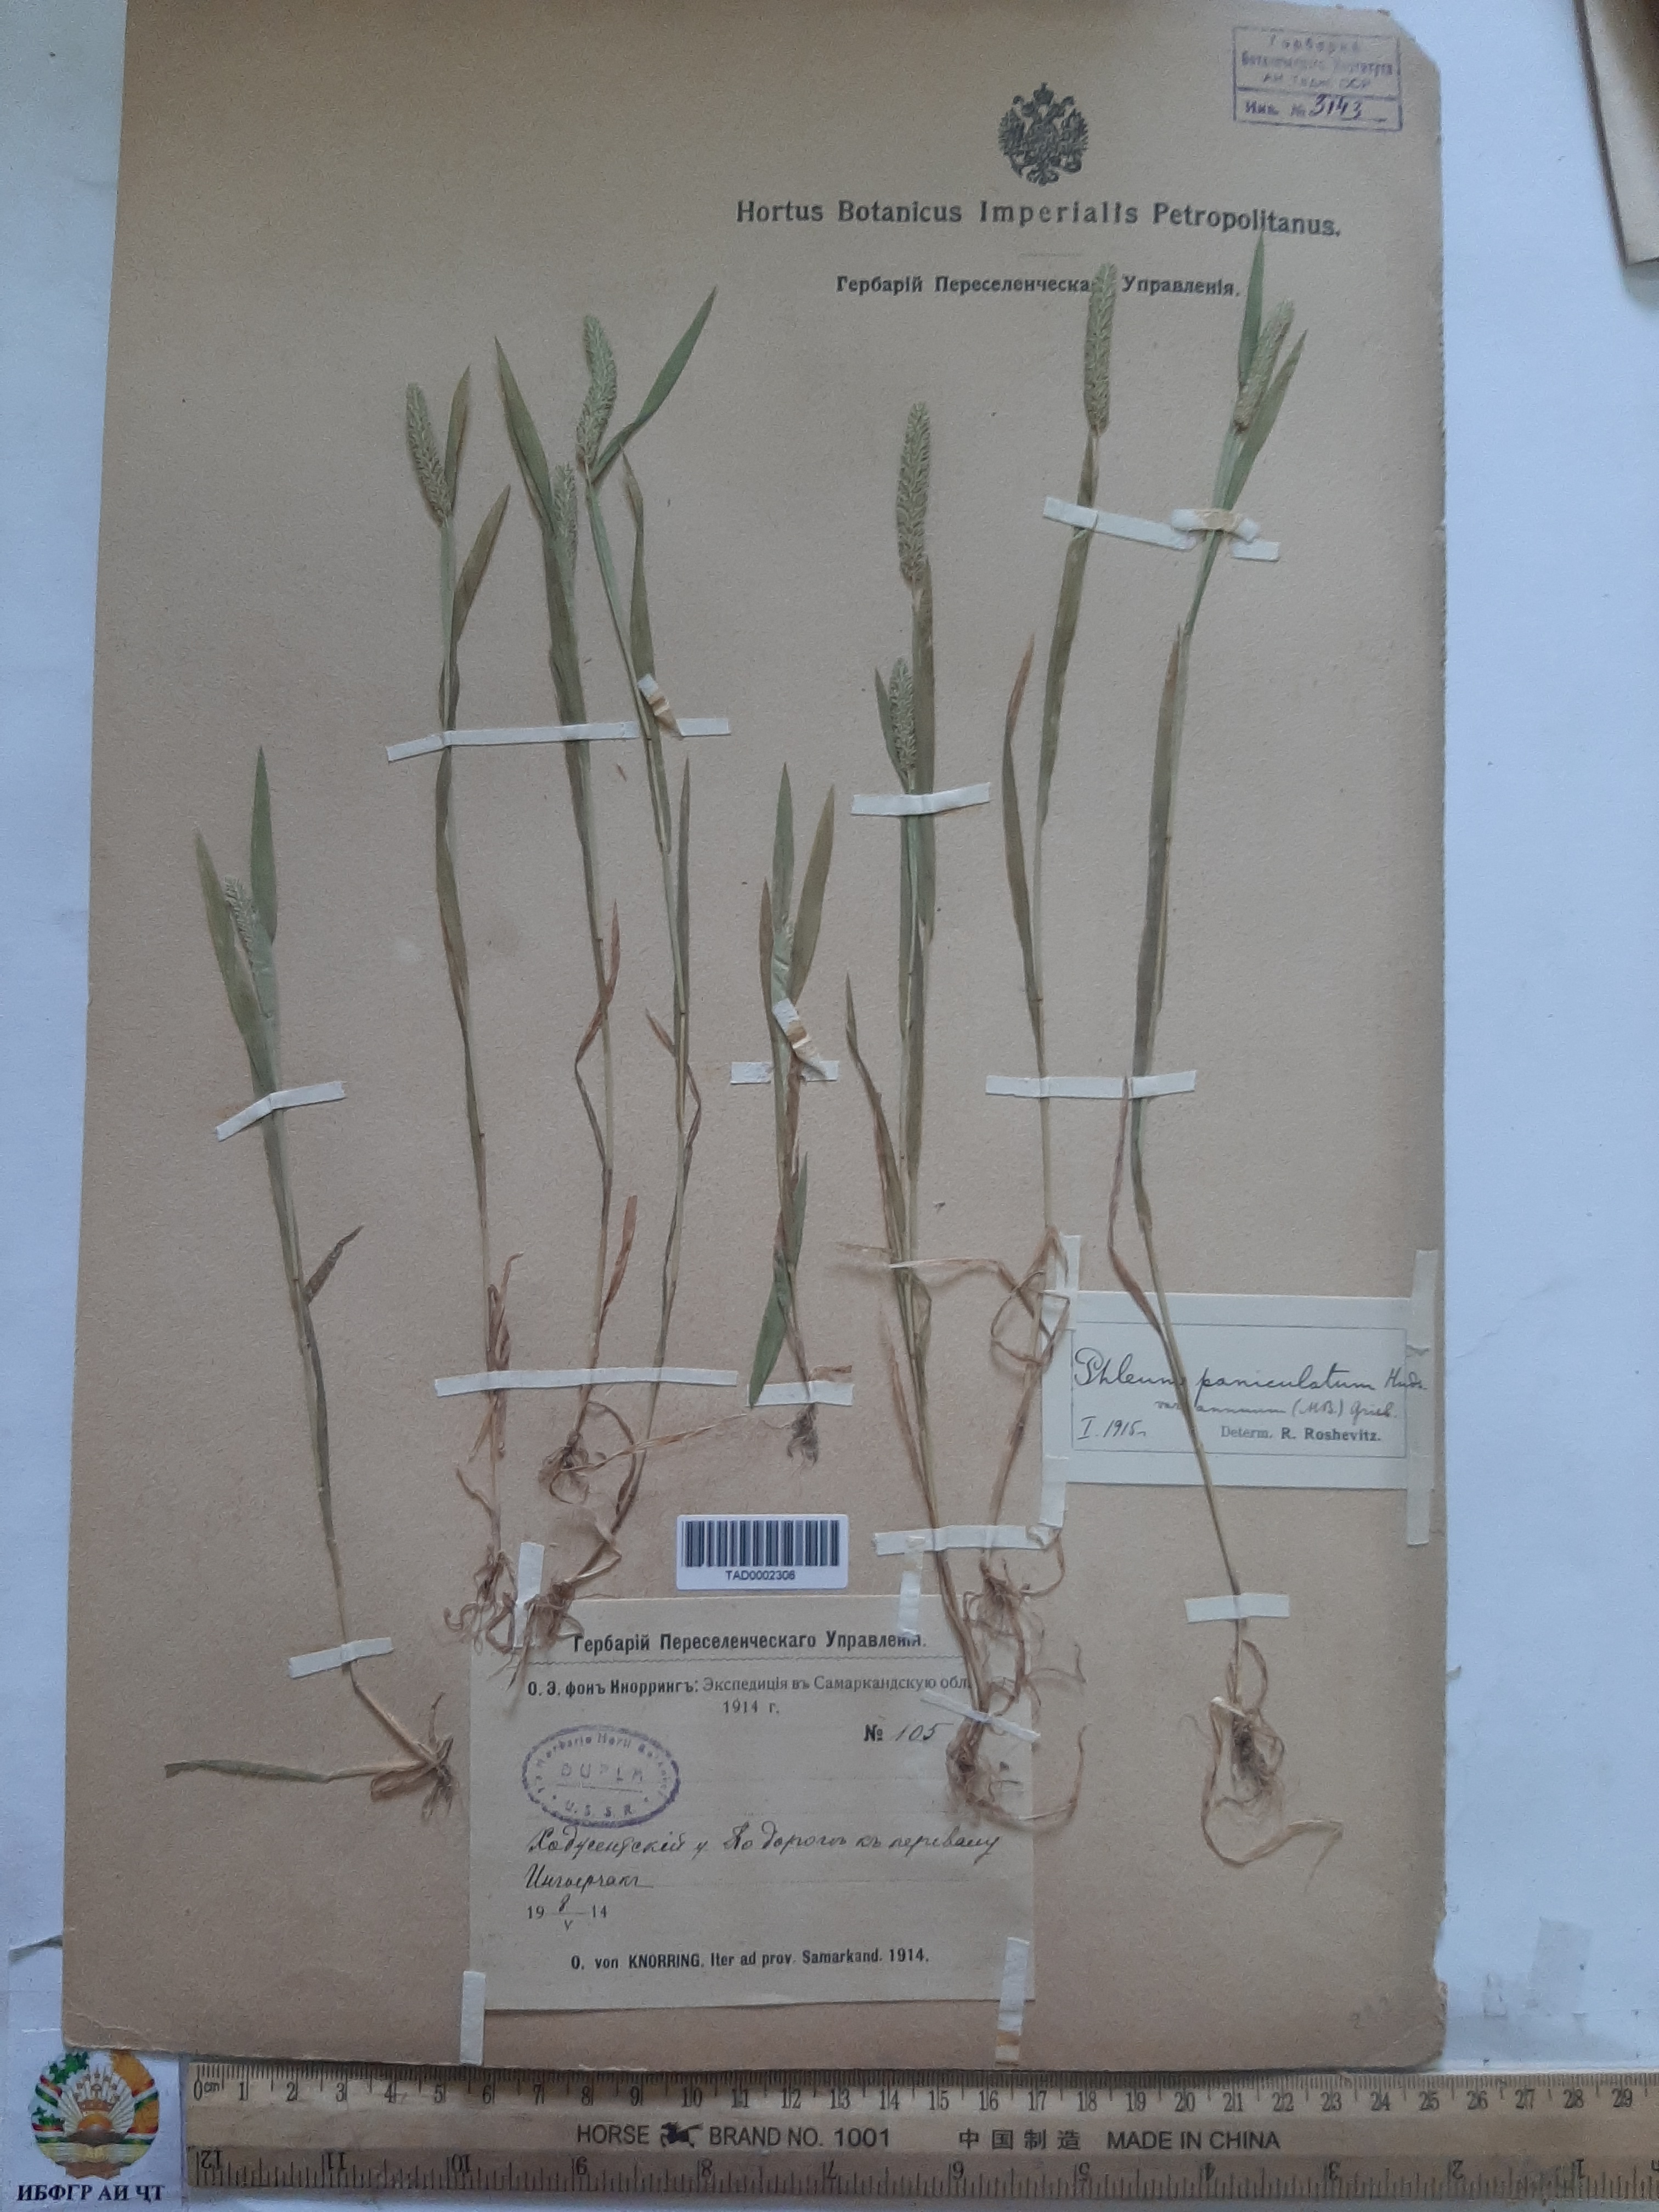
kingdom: Plantae
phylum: Tracheophyta
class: Liliopsida
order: Poales
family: Poaceae
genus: Phleum
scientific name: Phleum paniculatum
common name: British timothy
